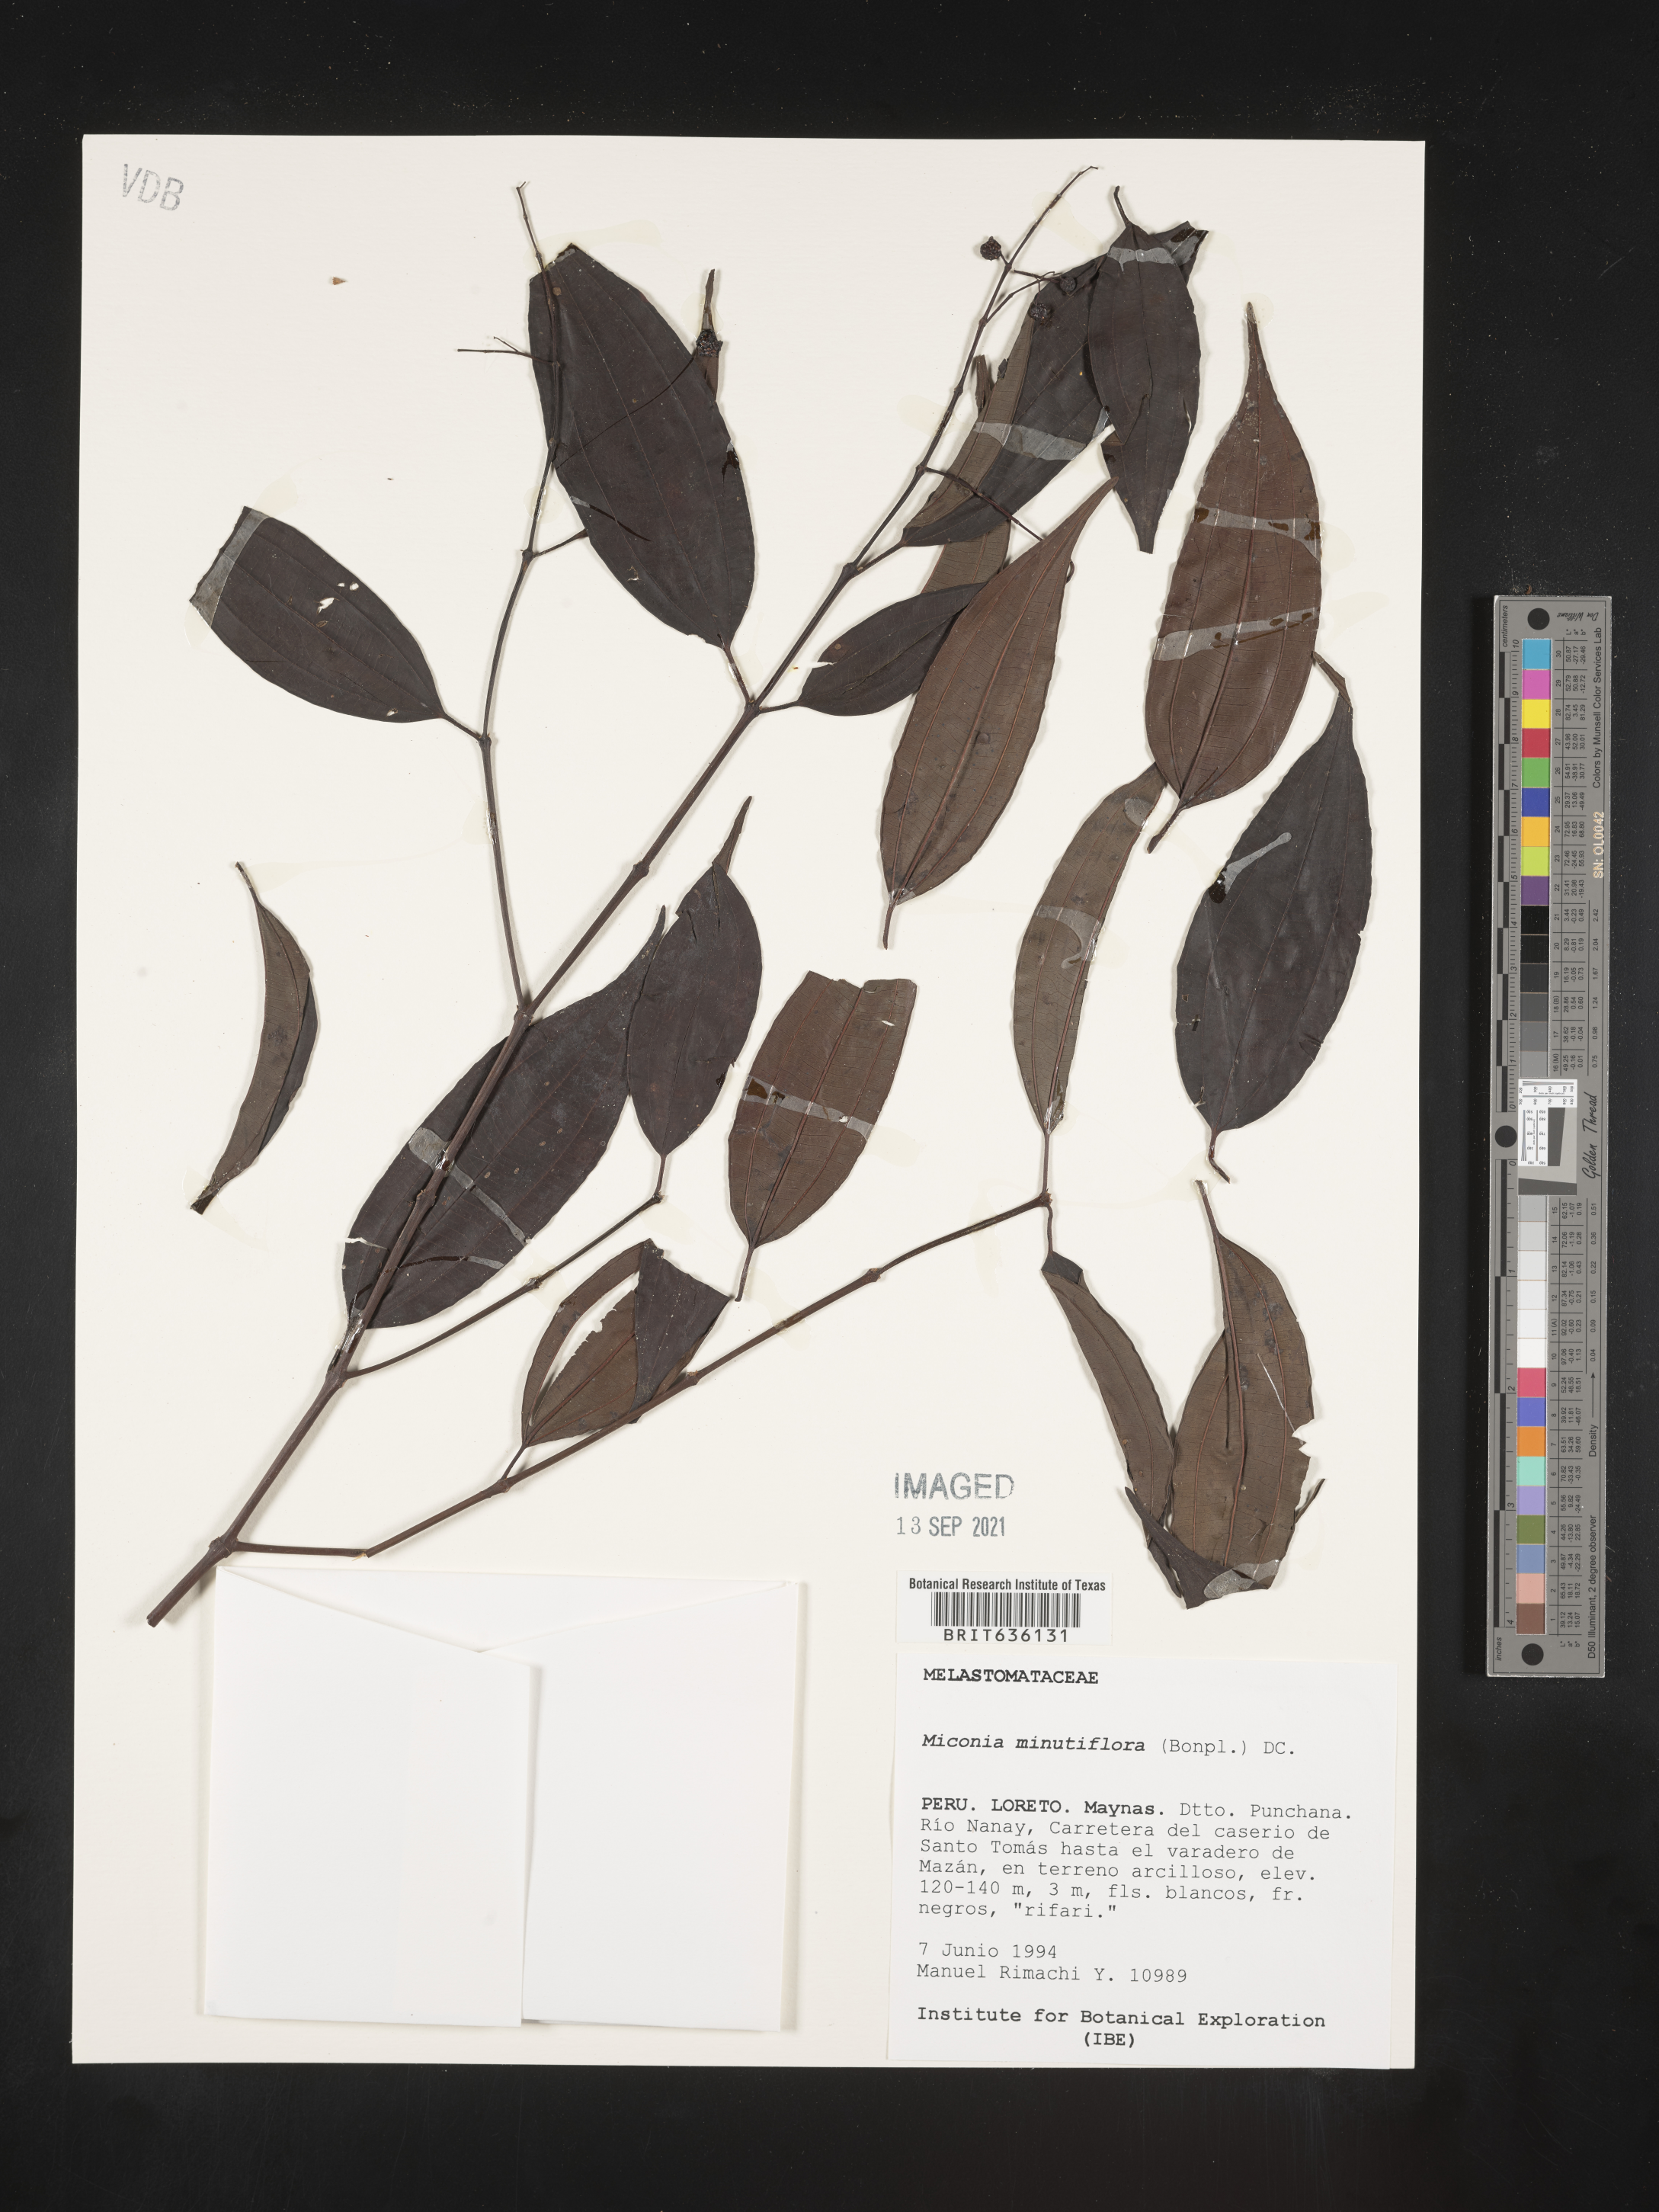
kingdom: Plantae
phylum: Tracheophyta
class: Magnoliopsida
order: Myrtales
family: Melastomataceae
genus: Miconia
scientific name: Miconia
